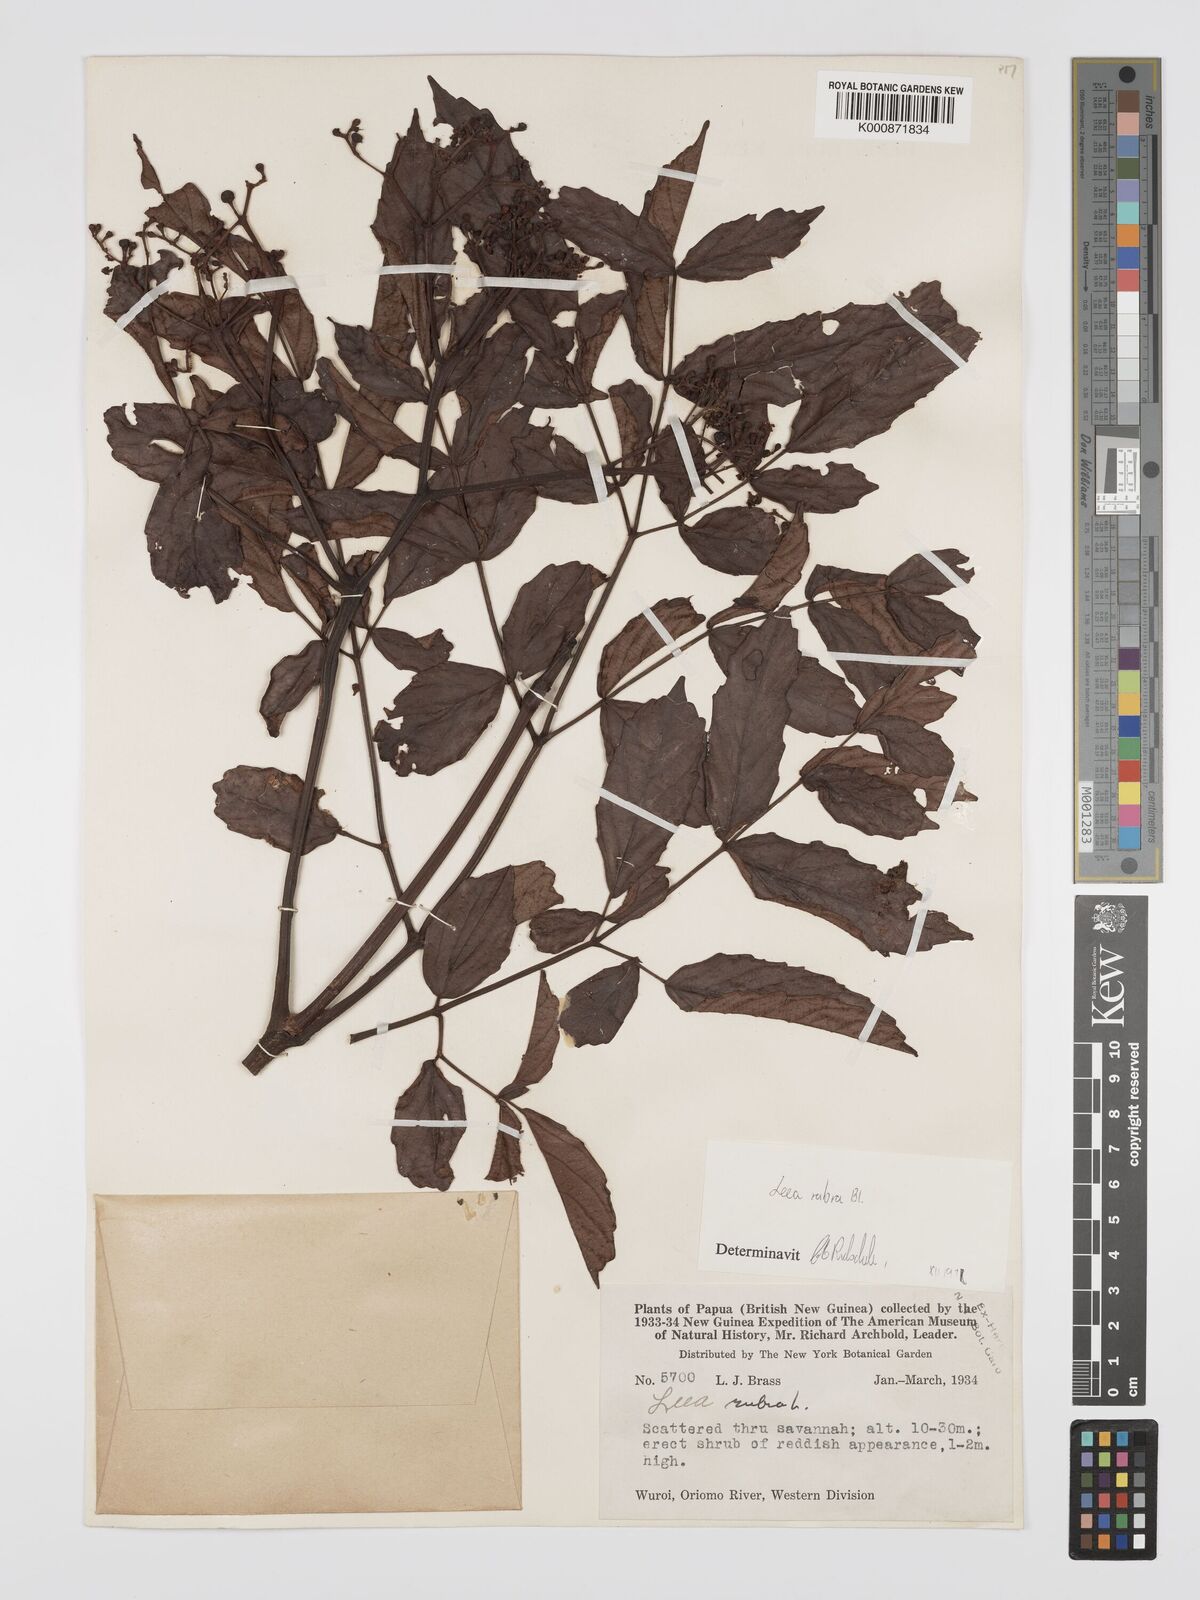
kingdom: Plantae
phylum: Tracheophyta
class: Magnoliopsida
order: Vitales
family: Vitaceae
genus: Leea
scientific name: Leea
